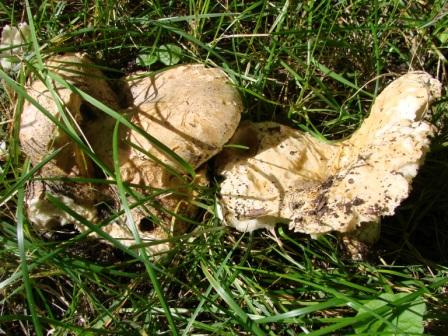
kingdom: Fungi
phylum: Basidiomycota
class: Agaricomycetes
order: Russulales
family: Russulaceae
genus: Russula
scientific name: Russula delica
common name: almindelig tragt-skørhat
